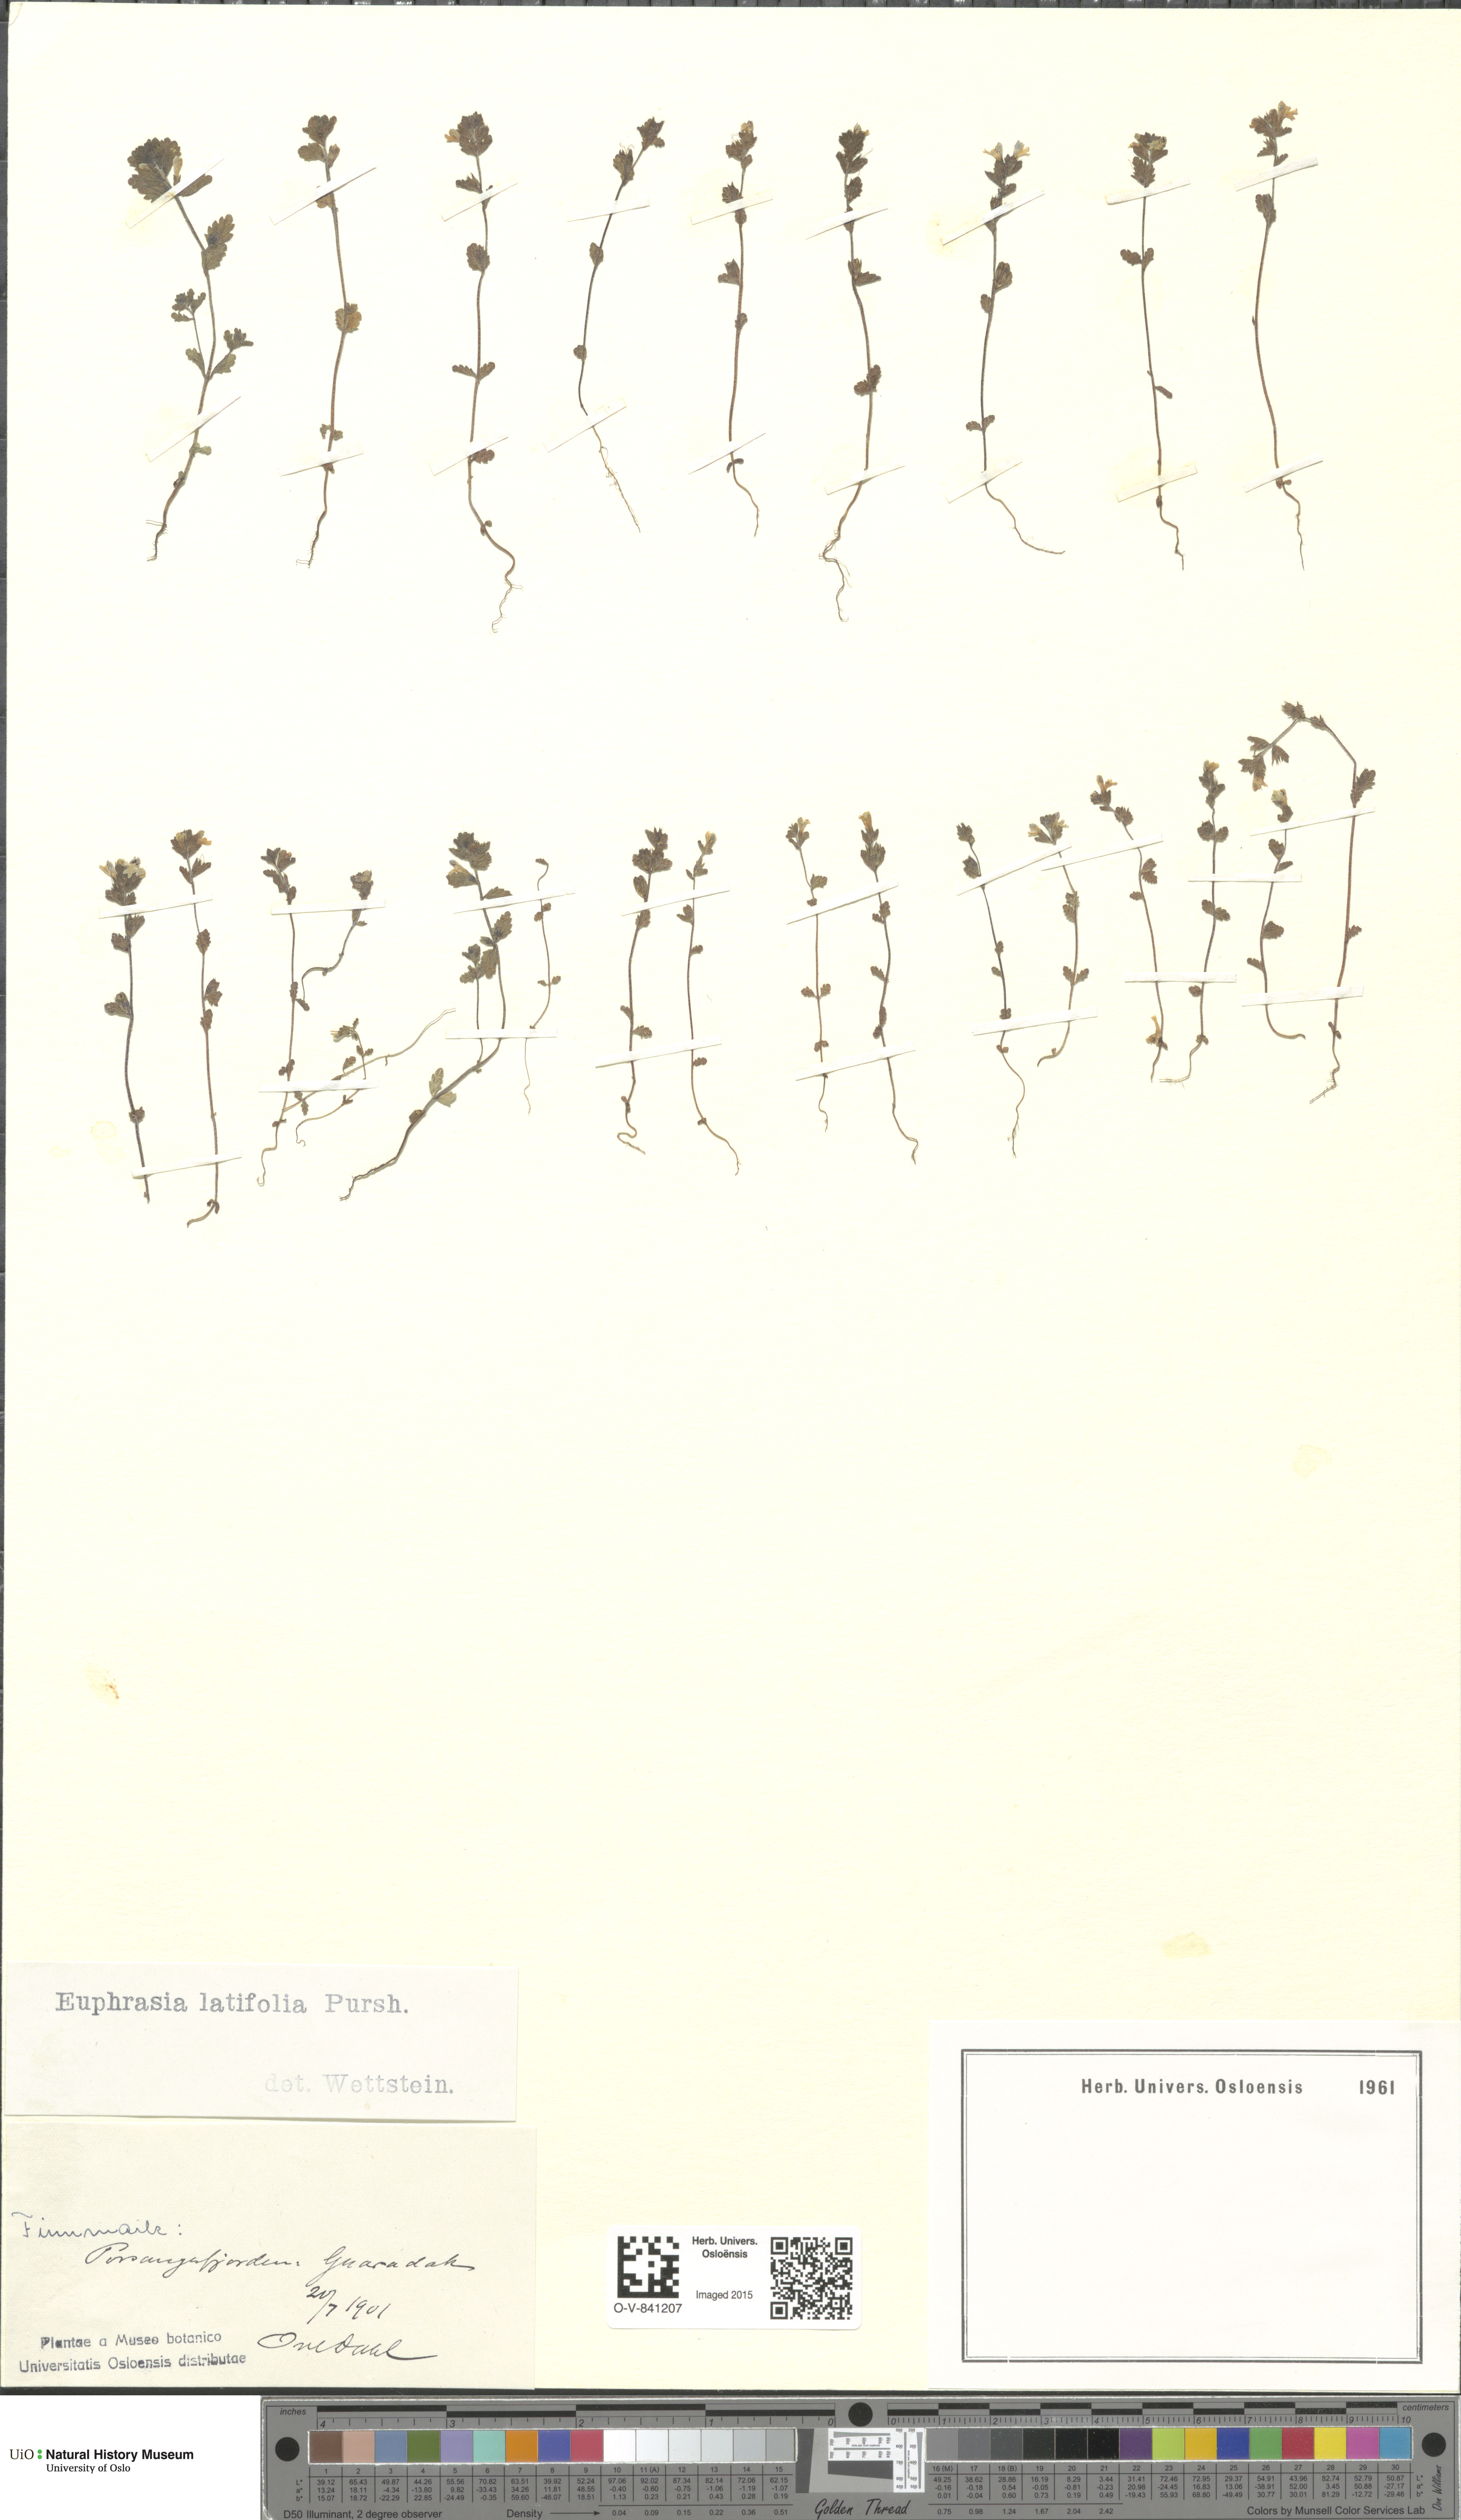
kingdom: Plantae
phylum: Tracheophyta
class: Magnoliopsida
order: Lamiales
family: Orobanchaceae
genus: Euphrasia
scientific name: Euphrasia wettsteinii
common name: Wettstein's eyebright
